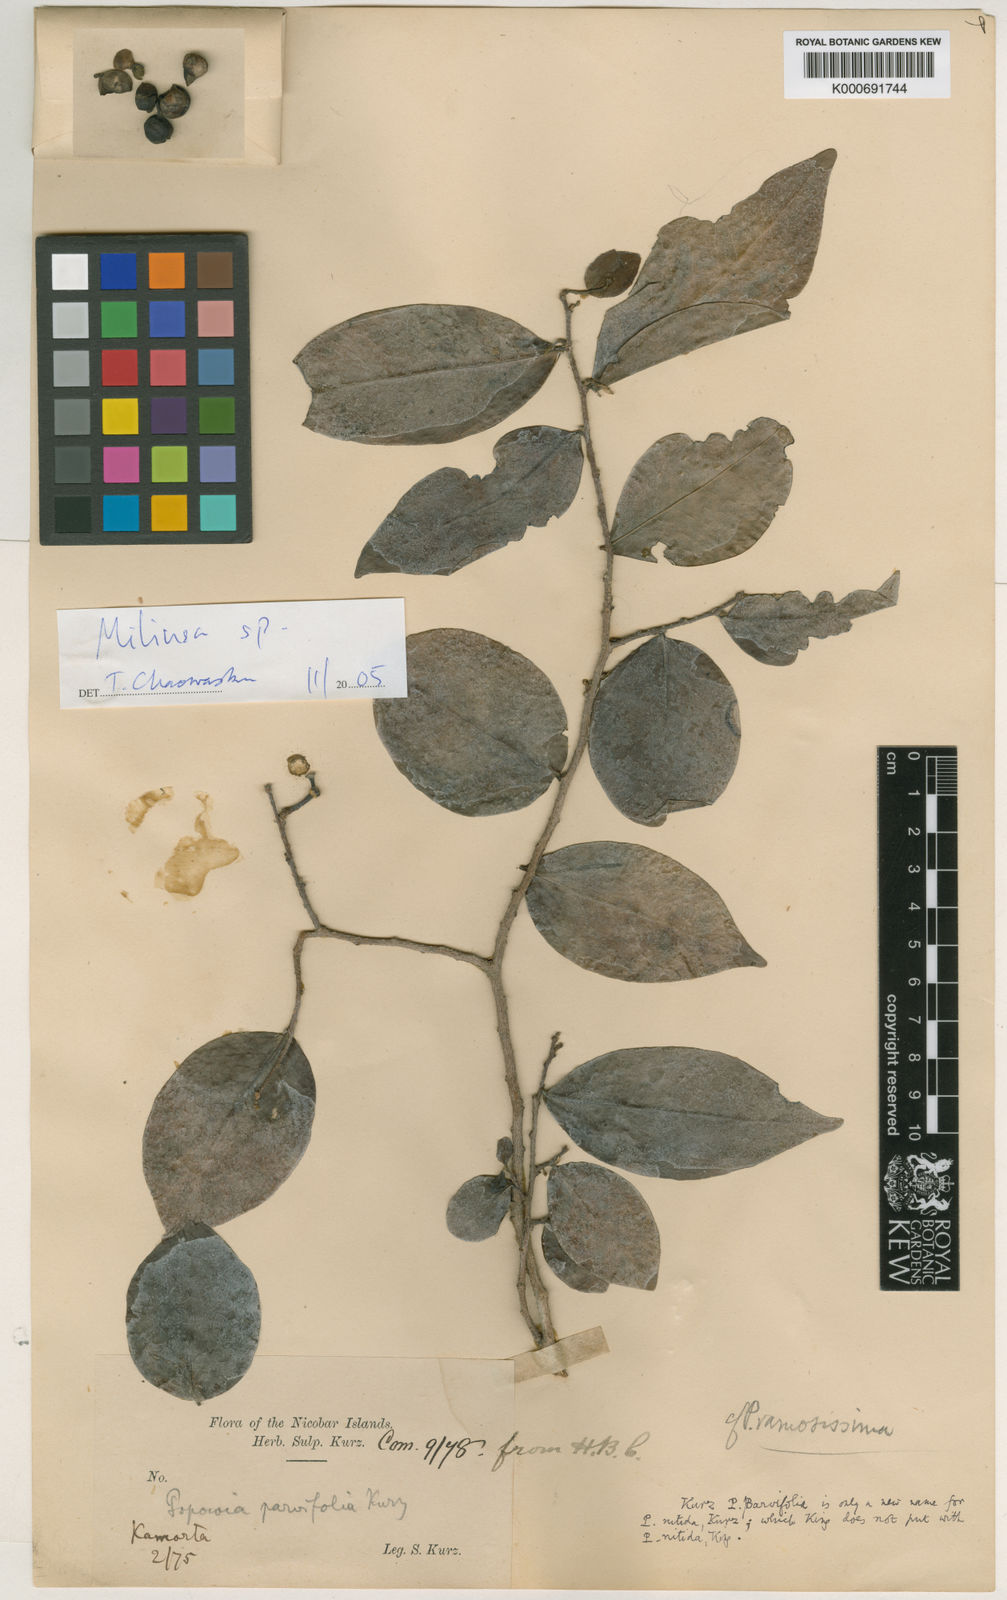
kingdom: Plantae
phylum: Tracheophyta
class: Magnoliopsida
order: Magnoliales
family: Annonaceae
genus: Popowia
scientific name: Popowia parvifolia
